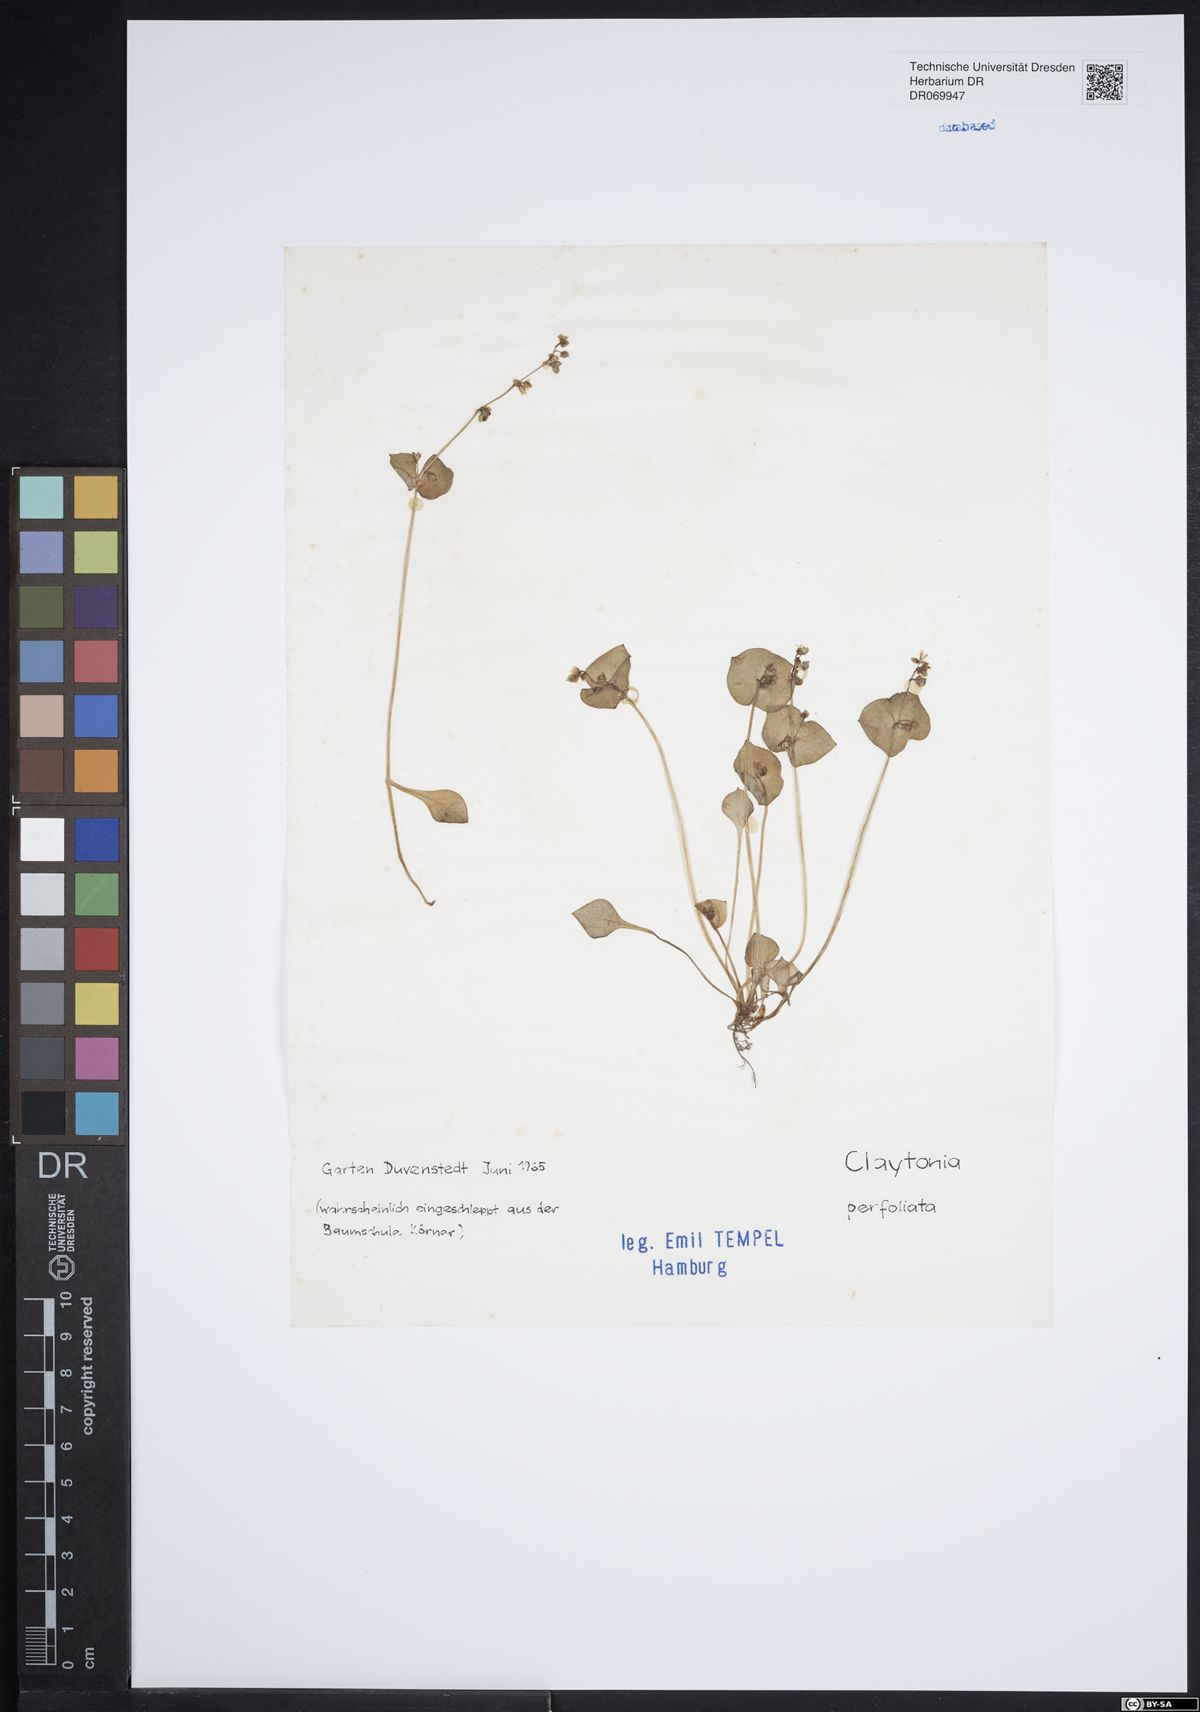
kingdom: Plantae
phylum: Tracheophyta
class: Magnoliopsida
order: Caryophyllales
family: Montiaceae
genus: Claytonia
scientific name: Claytonia perfoliata
